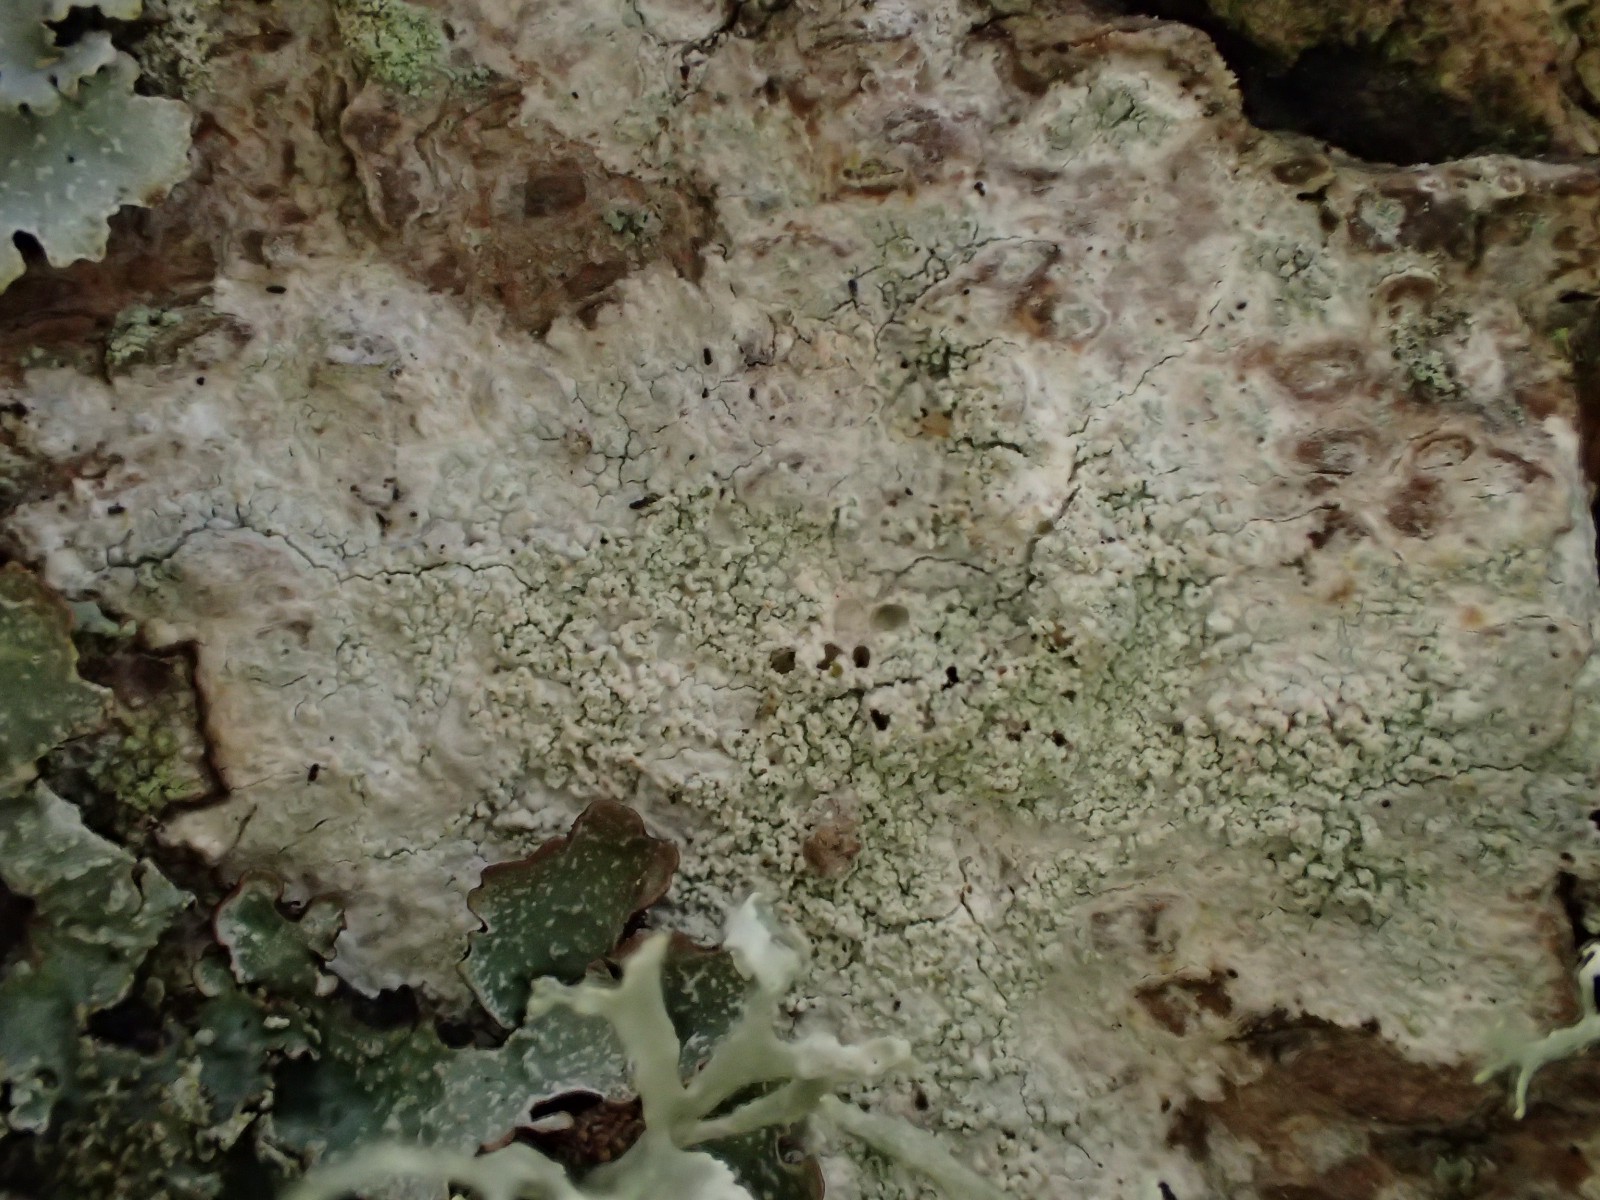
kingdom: Fungi
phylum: Ascomycota
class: Lecanoromycetes
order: Ostropales
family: Phlyctidaceae
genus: Phlyctis
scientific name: Phlyctis argena
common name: almindelig sølvlav
